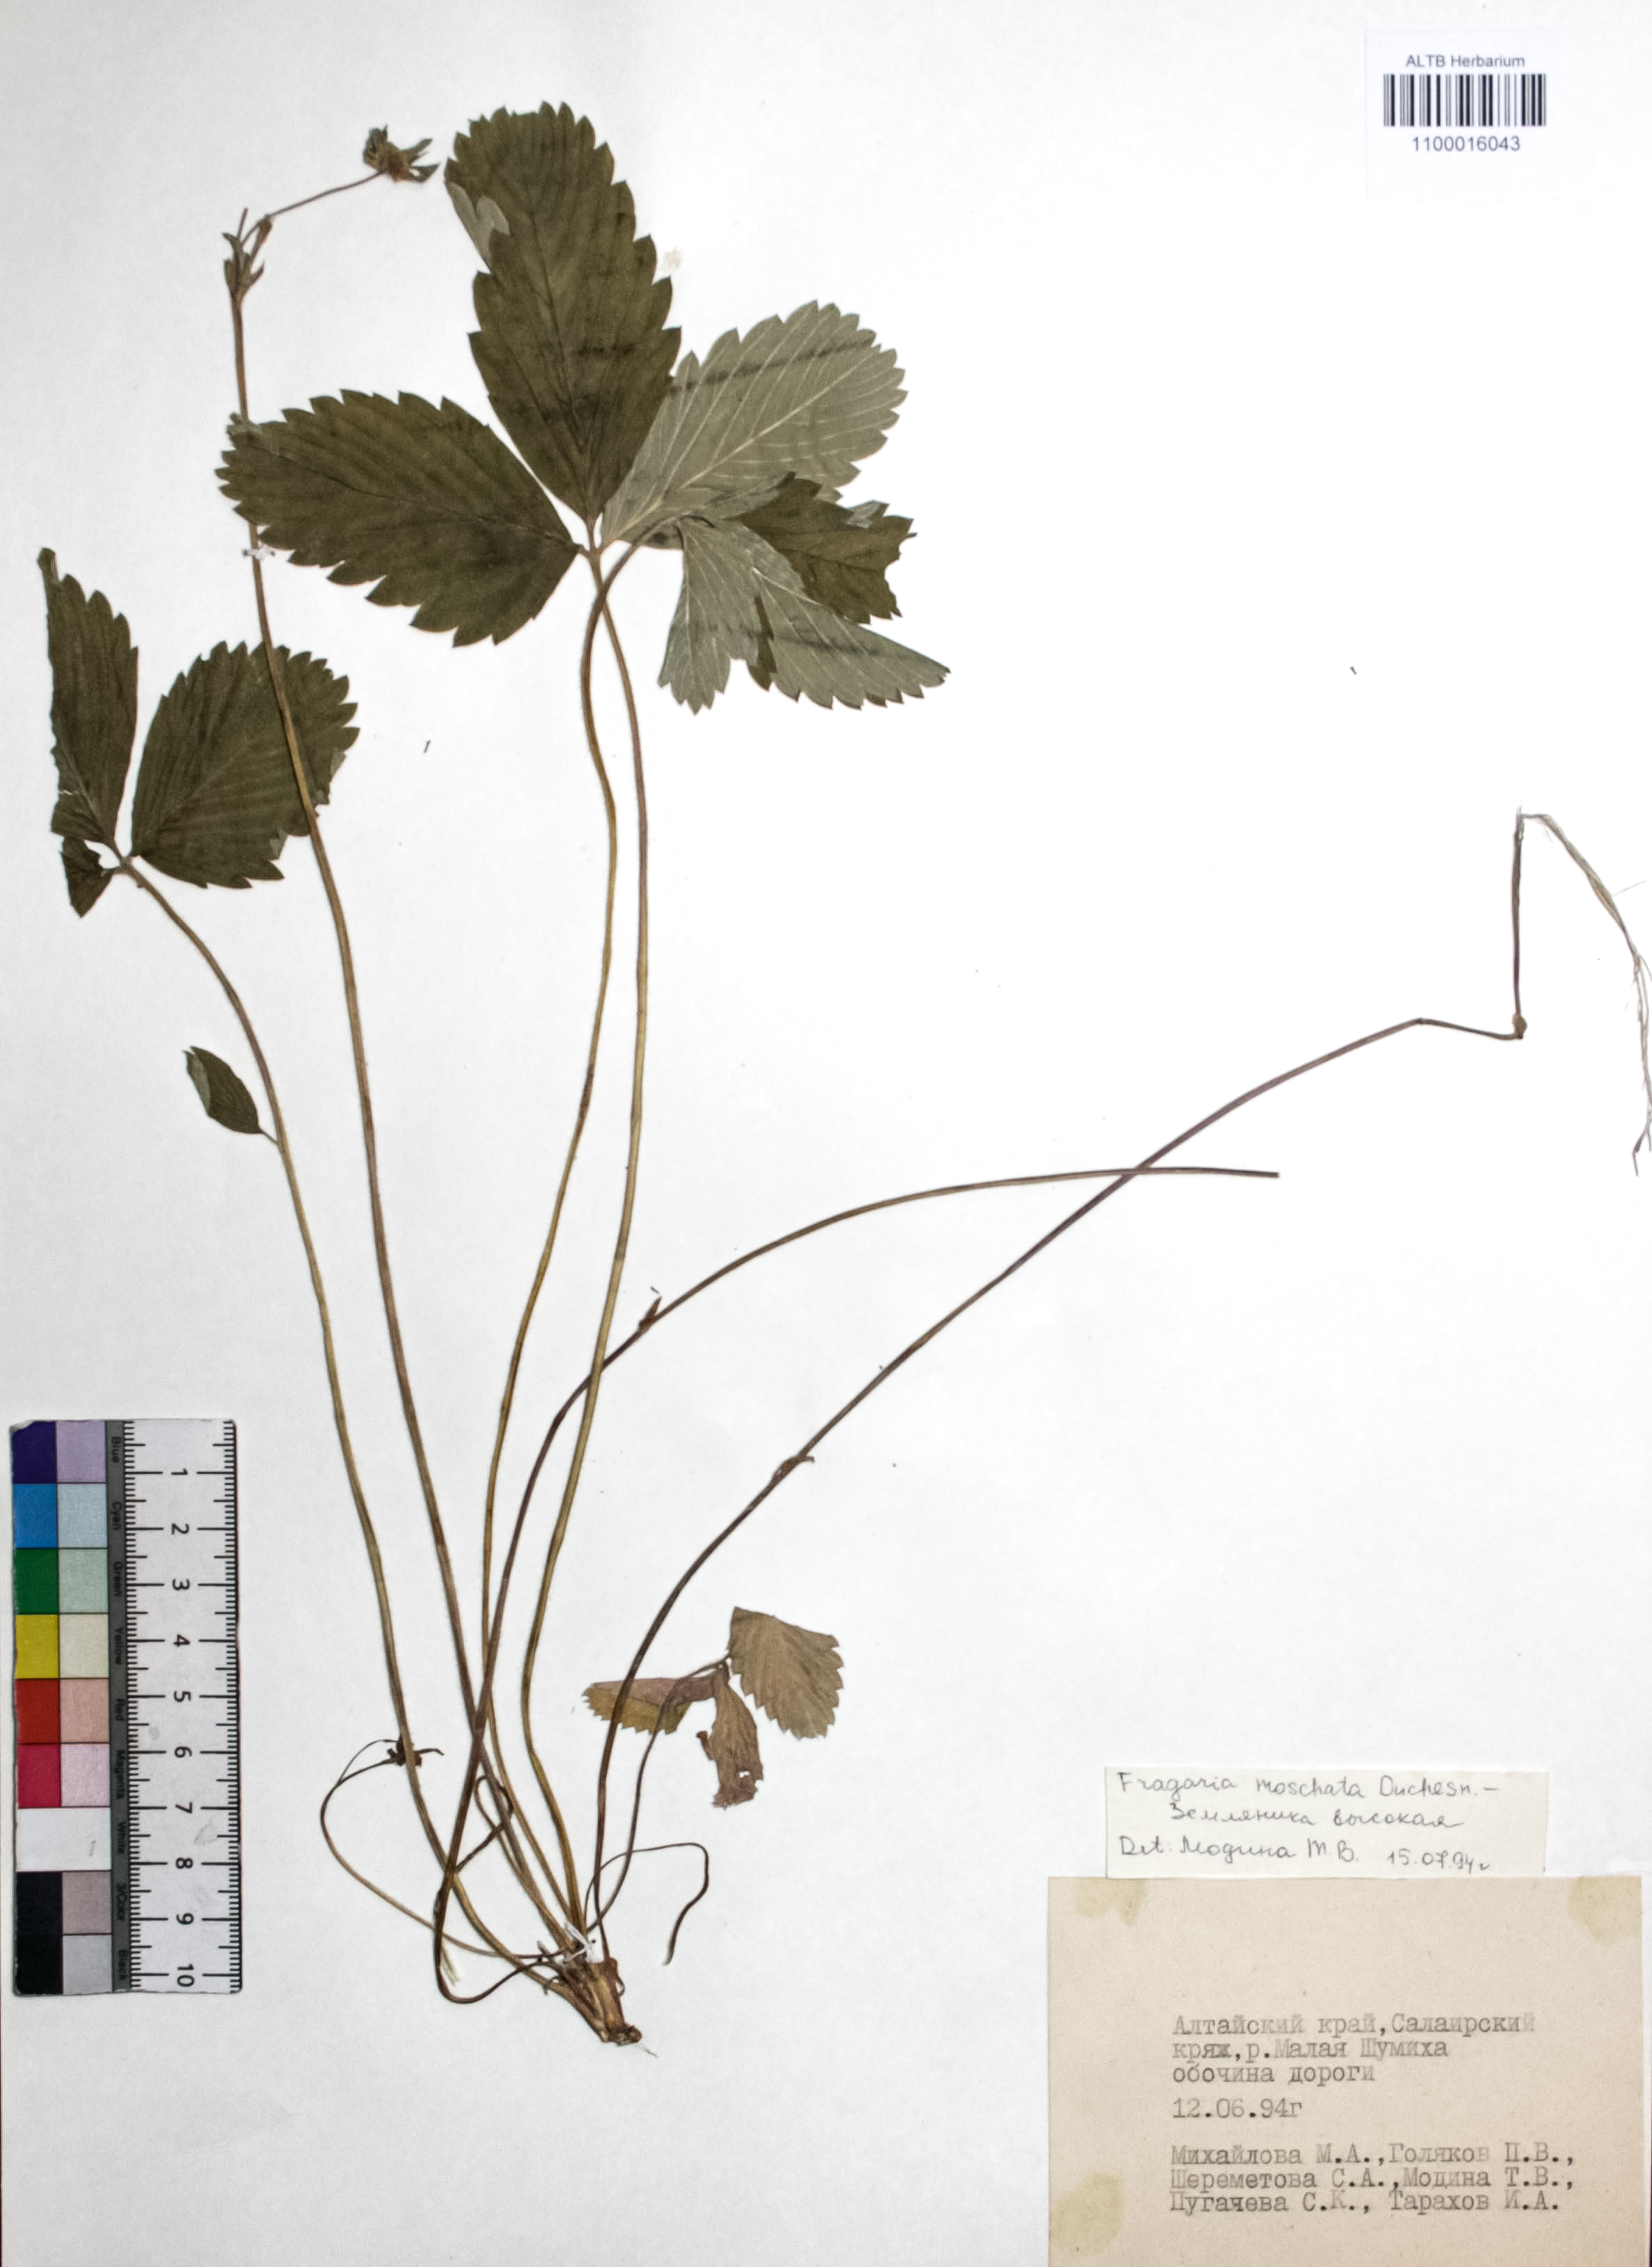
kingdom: Plantae
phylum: Tracheophyta
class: Magnoliopsida
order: Rosales
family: Rosaceae
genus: Fragaria
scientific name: Fragaria moschata
